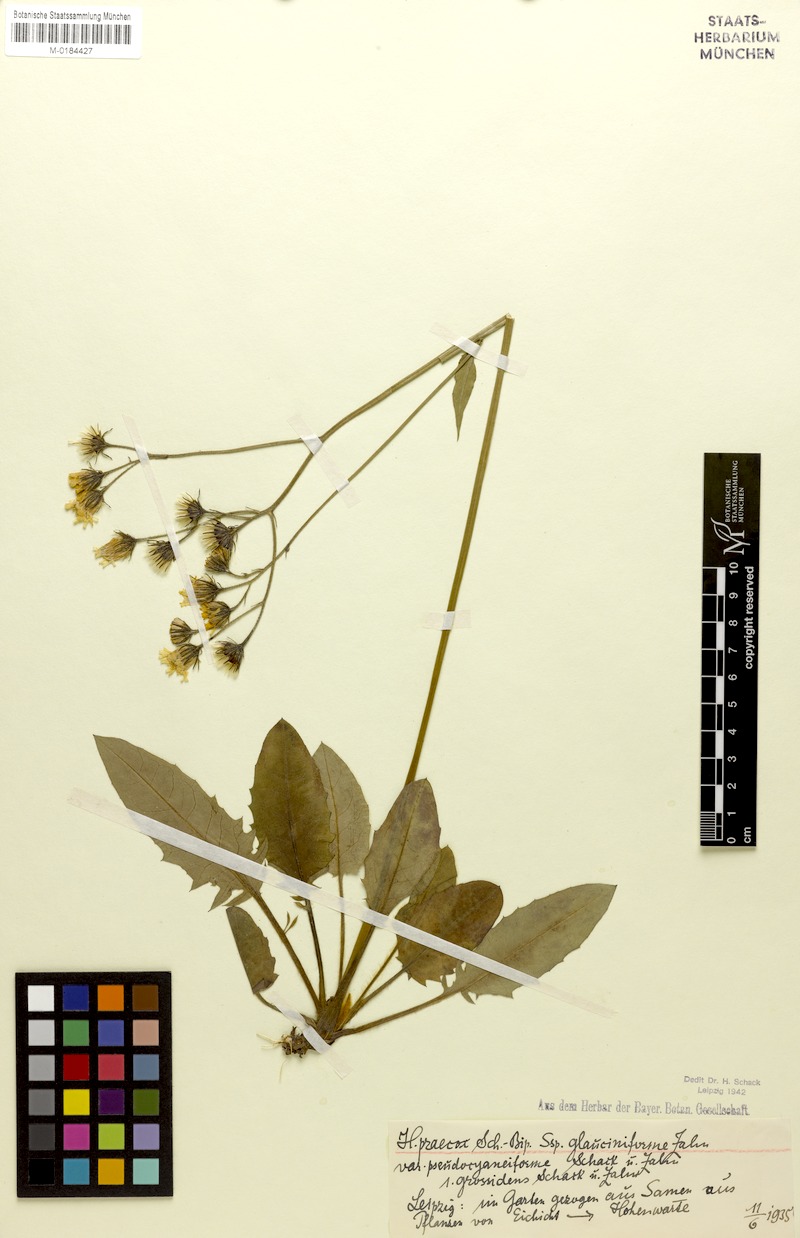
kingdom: Plantae
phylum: Tracheophyta
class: Magnoliopsida
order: Asterales
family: Asteraceae
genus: Hieracium
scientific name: Hieracium glaucinum
